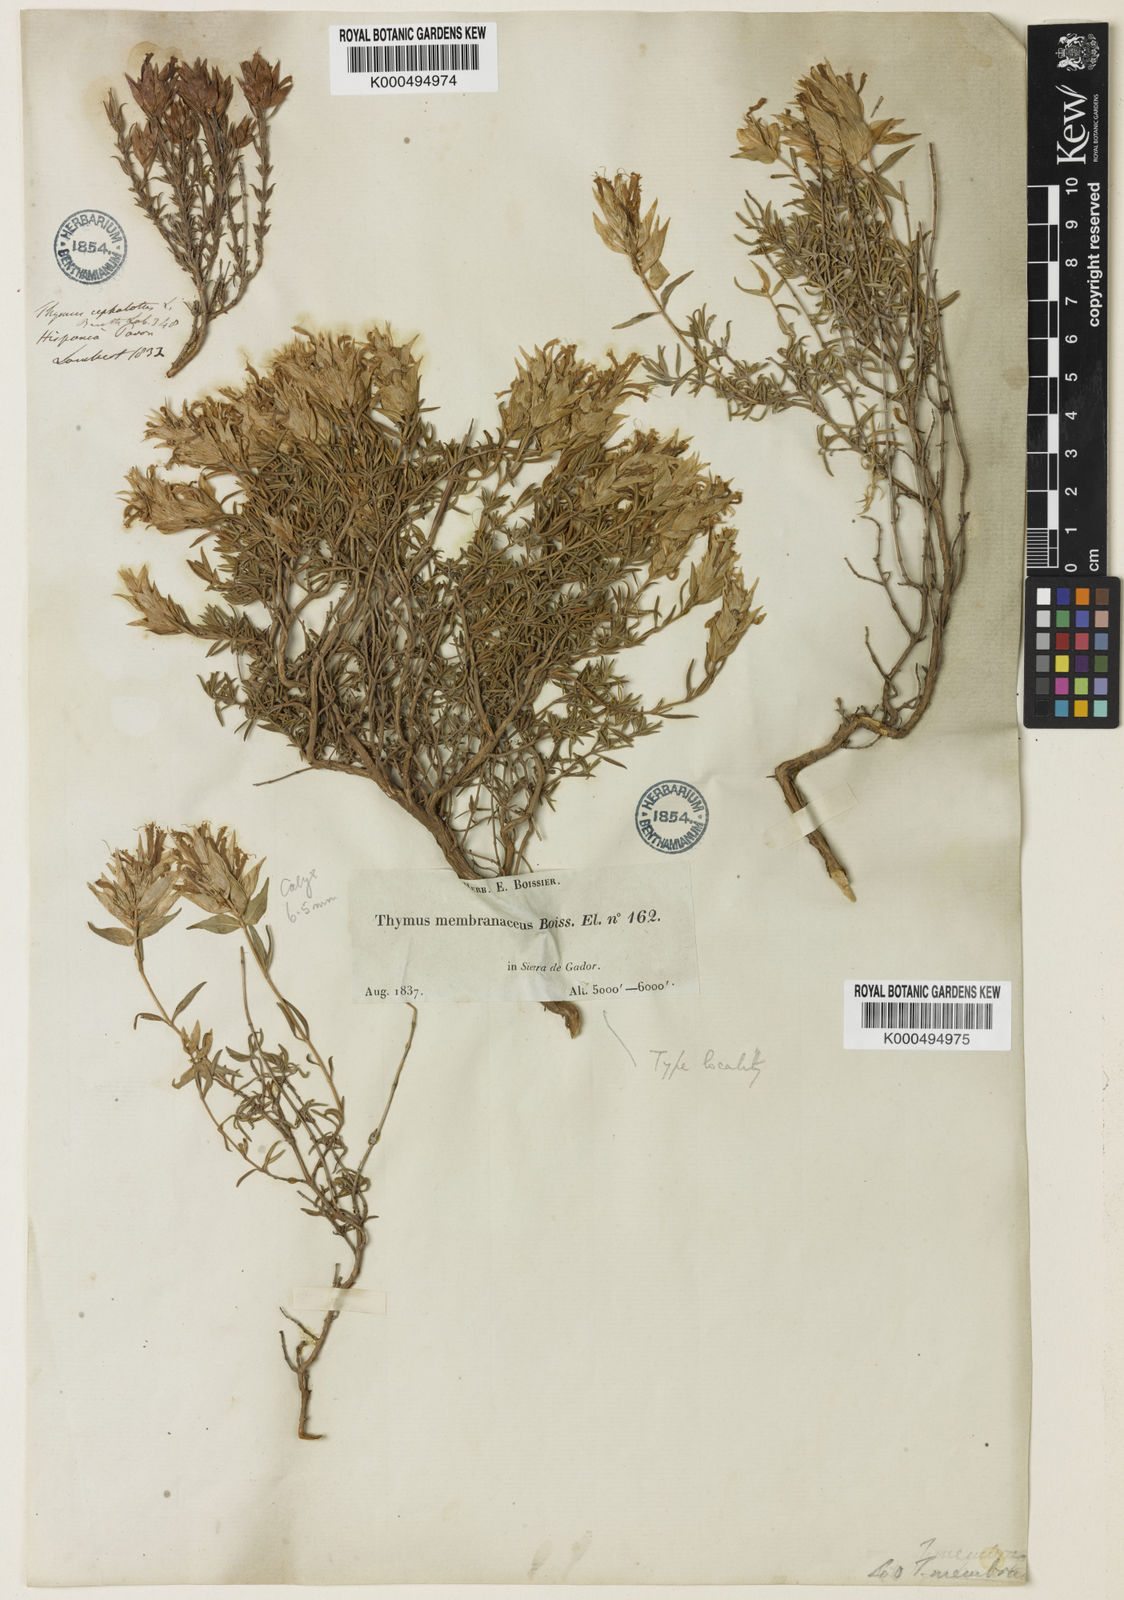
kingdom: Plantae
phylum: Tracheophyta
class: Magnoliopsida
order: Lamiales
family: Lamiaceae
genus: Thymus
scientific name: Thymus membranaceus
